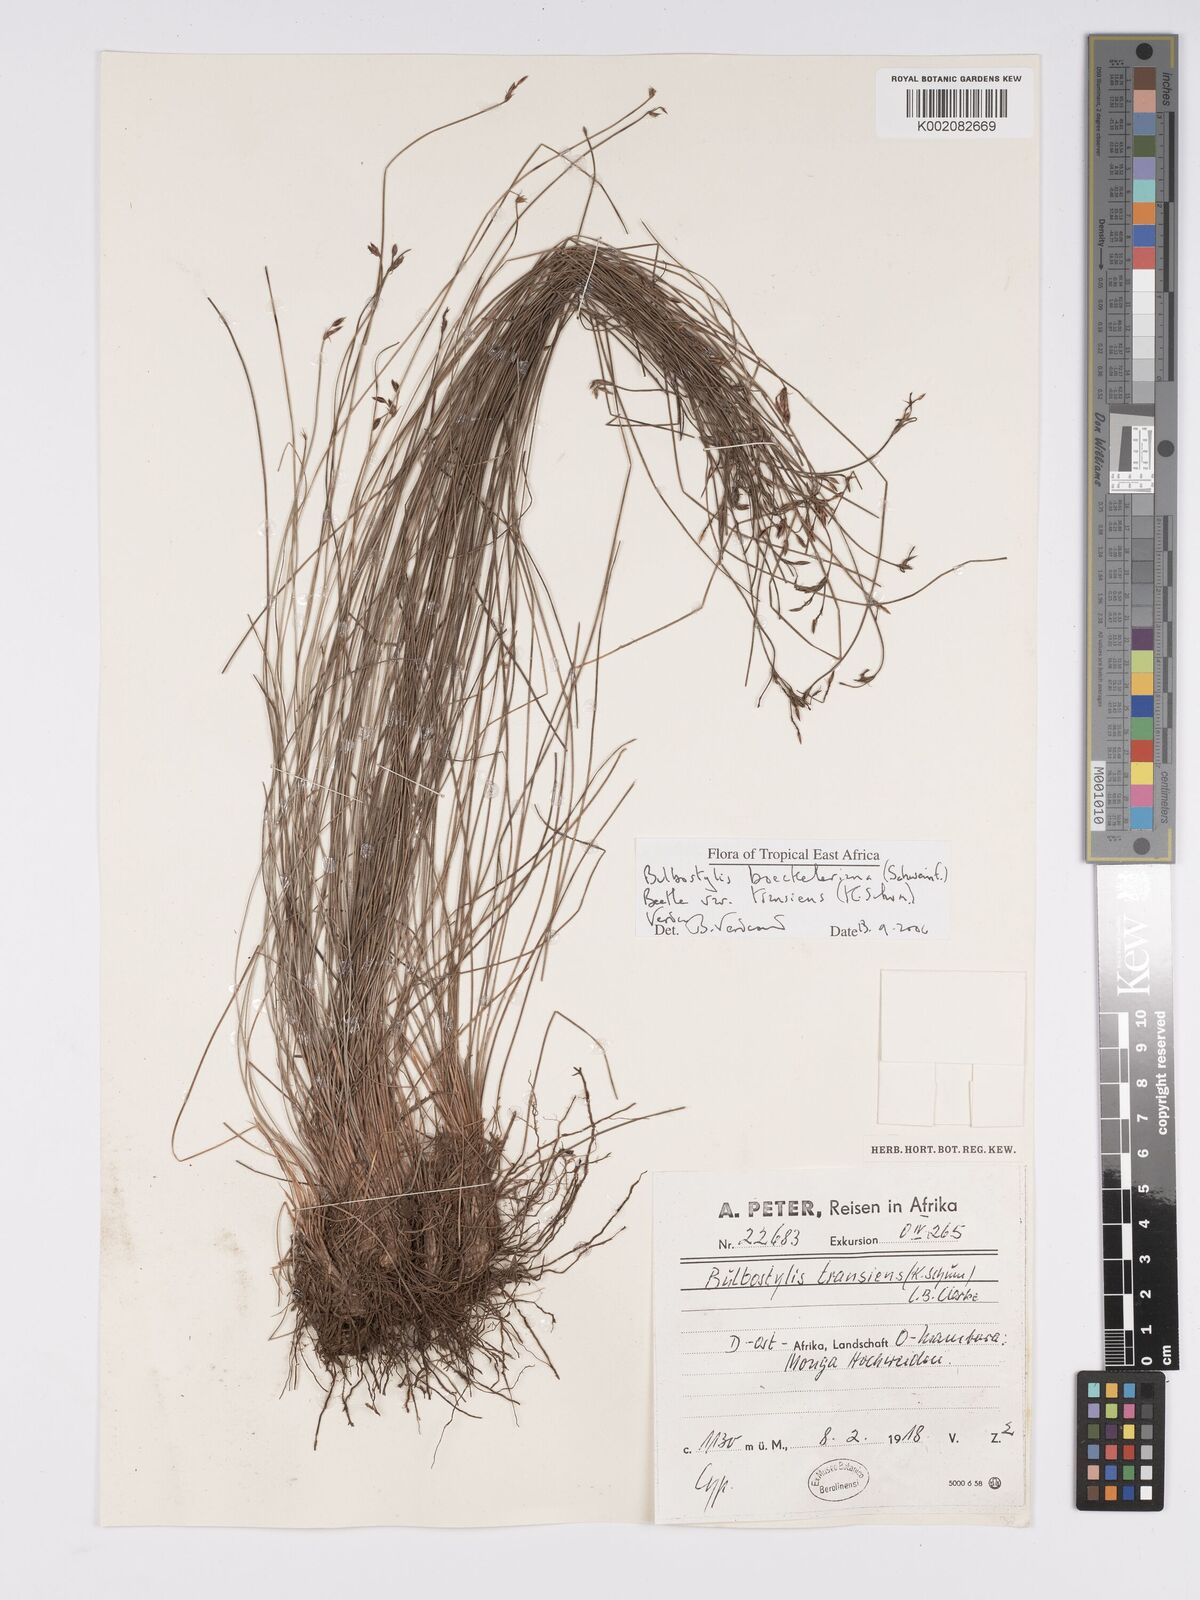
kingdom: Plantae
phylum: Tracheophyta
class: Liliopsida
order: Poales
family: Cyperaceae
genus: Bulbostylis
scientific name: Bulbostylis boeckeleriana
